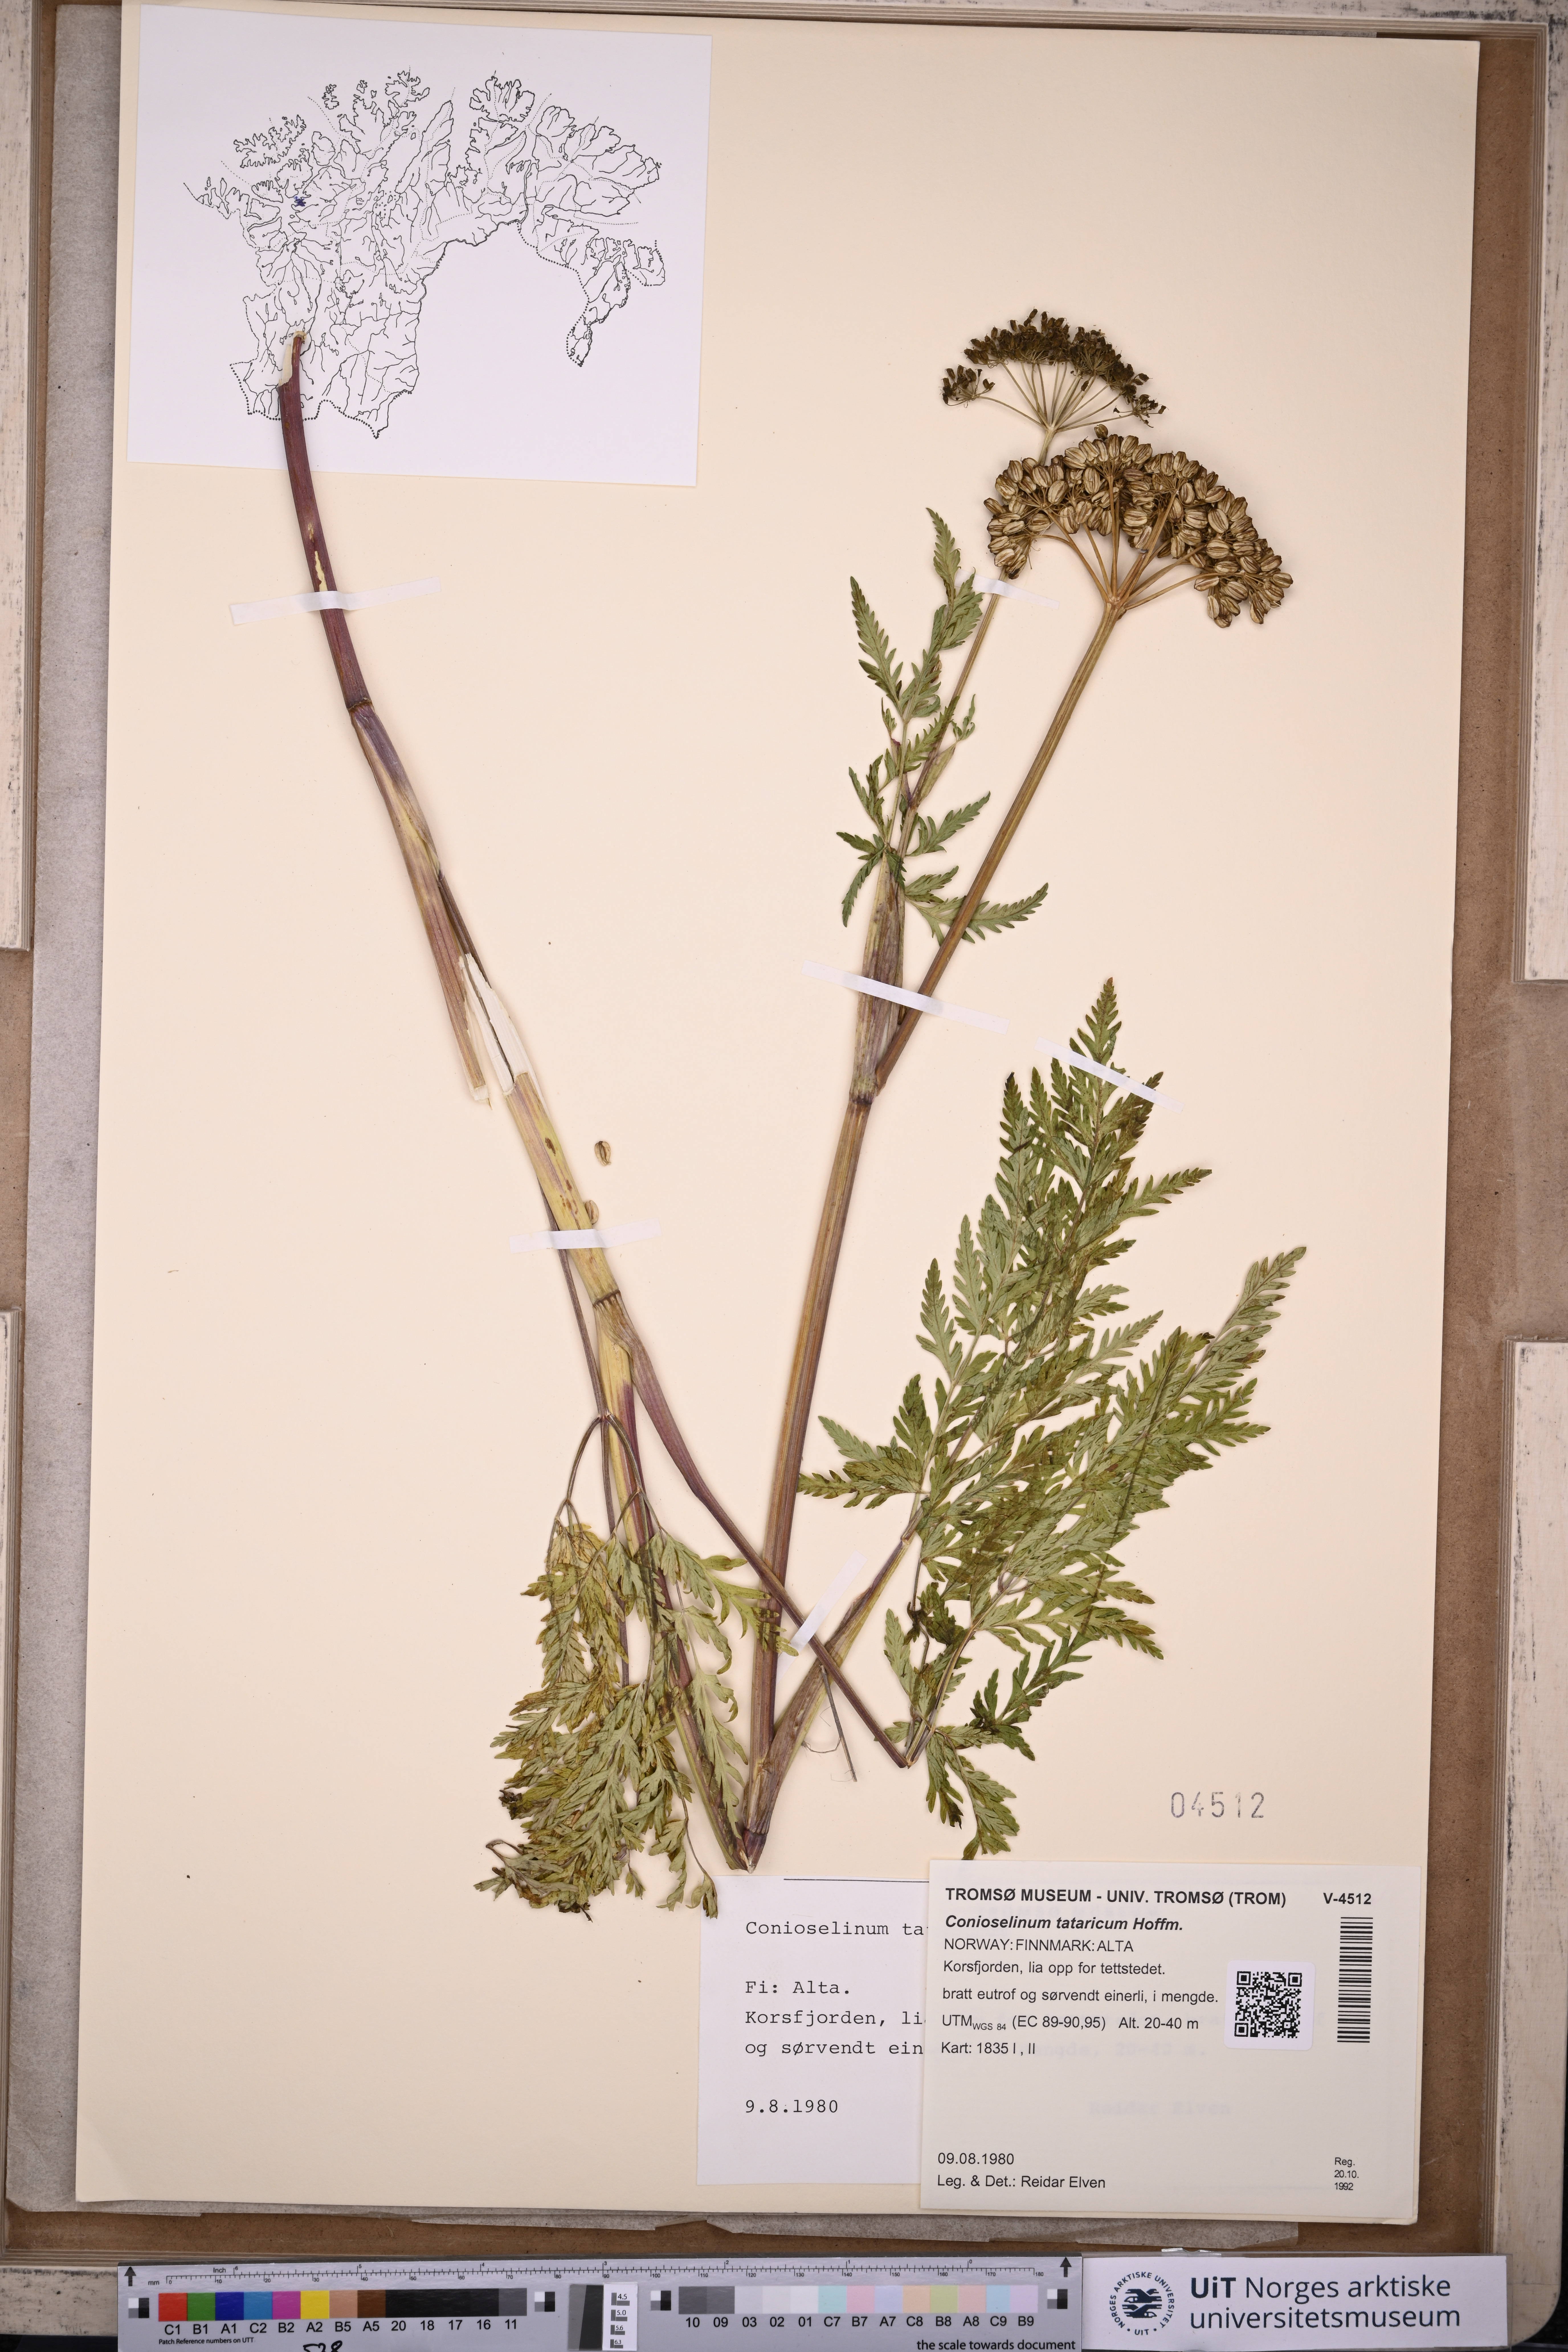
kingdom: Plantae
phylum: Tracheophyta
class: Magnoliopsida
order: Apiales
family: Apiaceae
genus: Seseli
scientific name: Seseli condensatum
